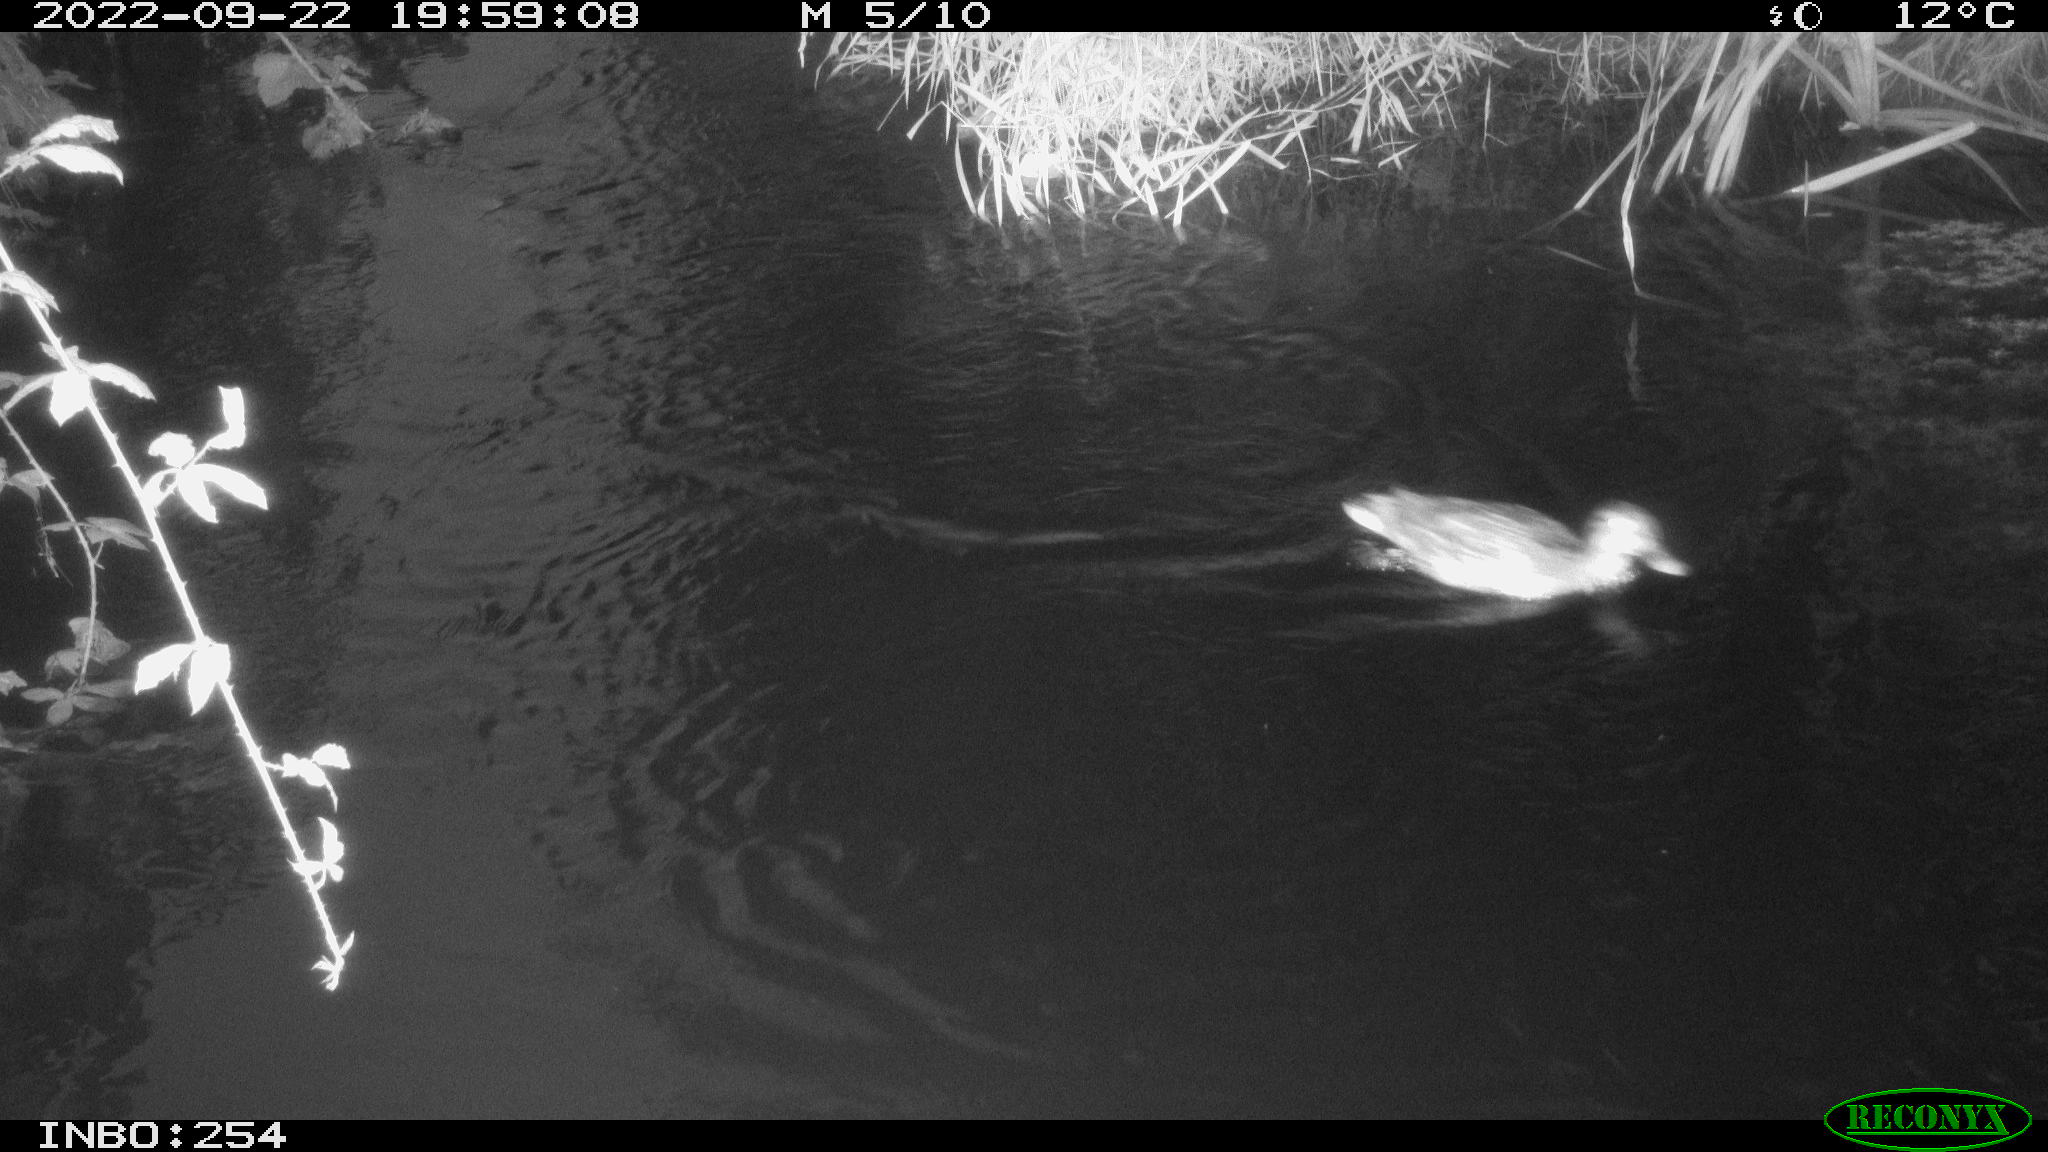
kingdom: Animalia
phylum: Chordata
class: Aves
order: Anseriformes
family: Anatidae
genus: Anas
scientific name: Anas
